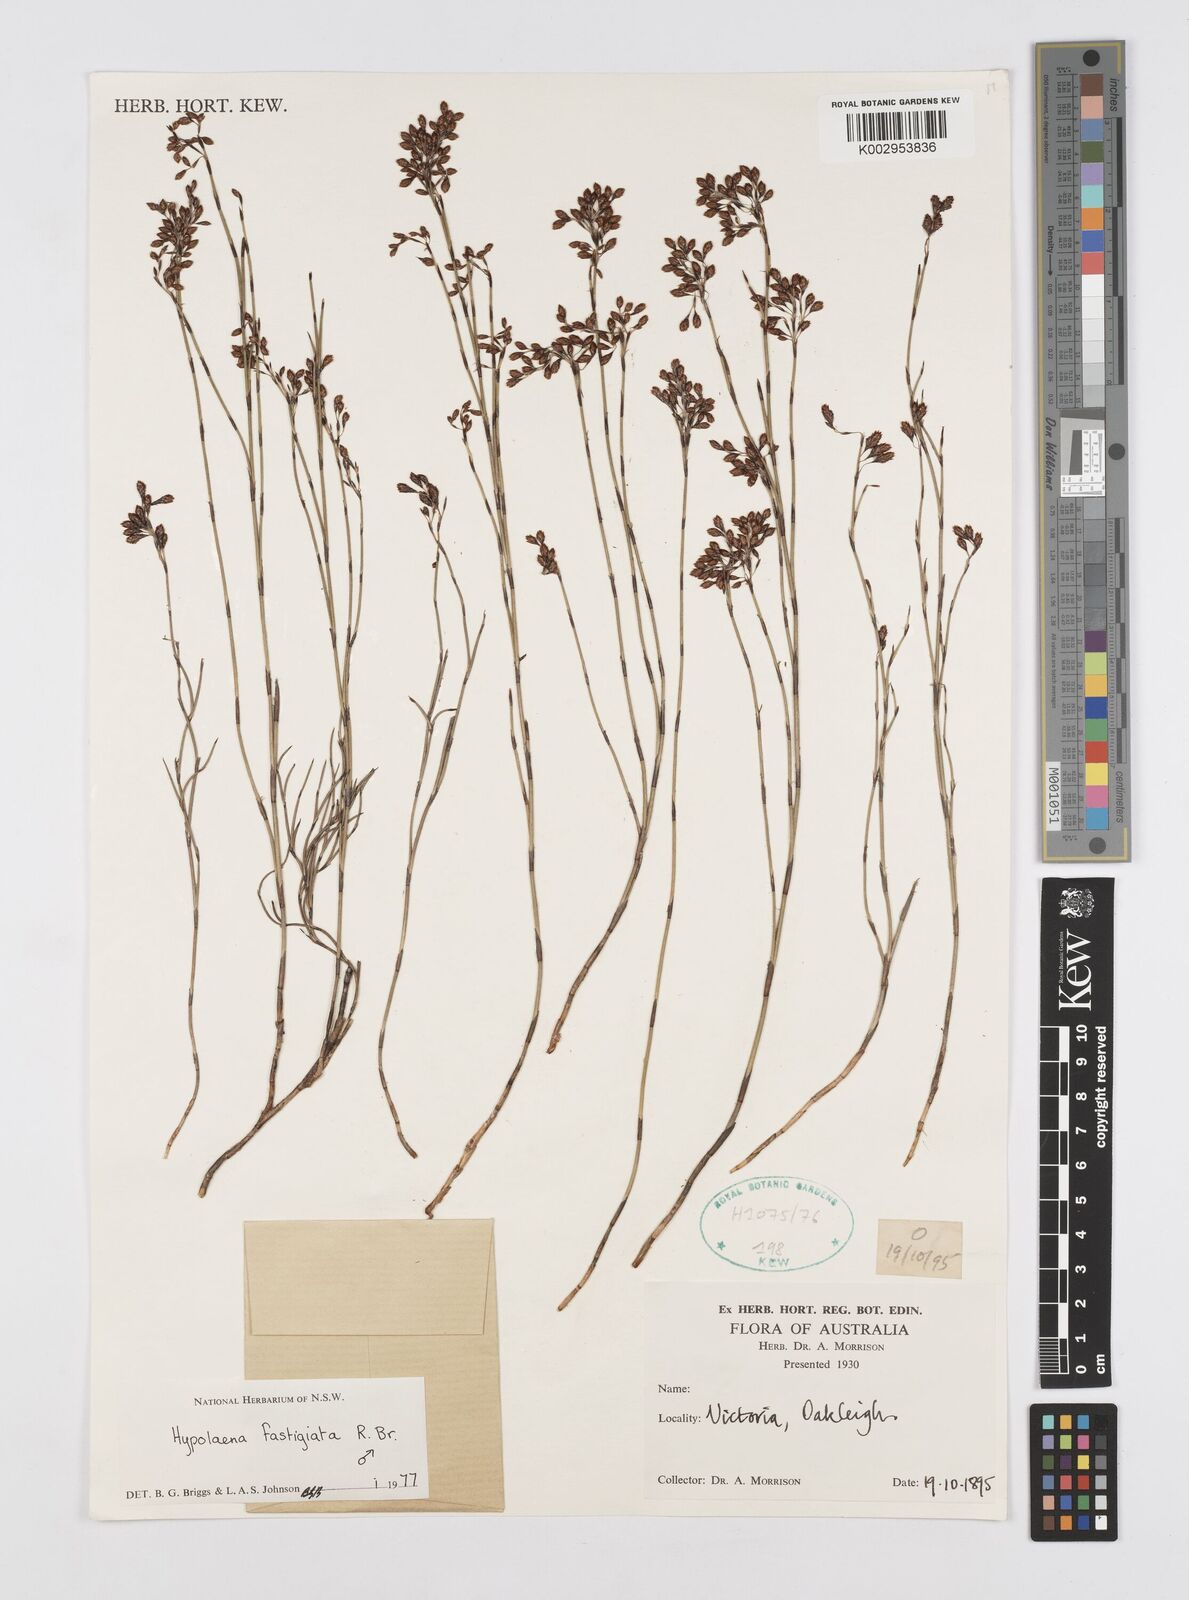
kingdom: Plantae
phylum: Tracheophyta
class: Liliopsida
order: Poales
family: Restionaceae
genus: Hypolaena
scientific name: Hypolaena fastigiata
